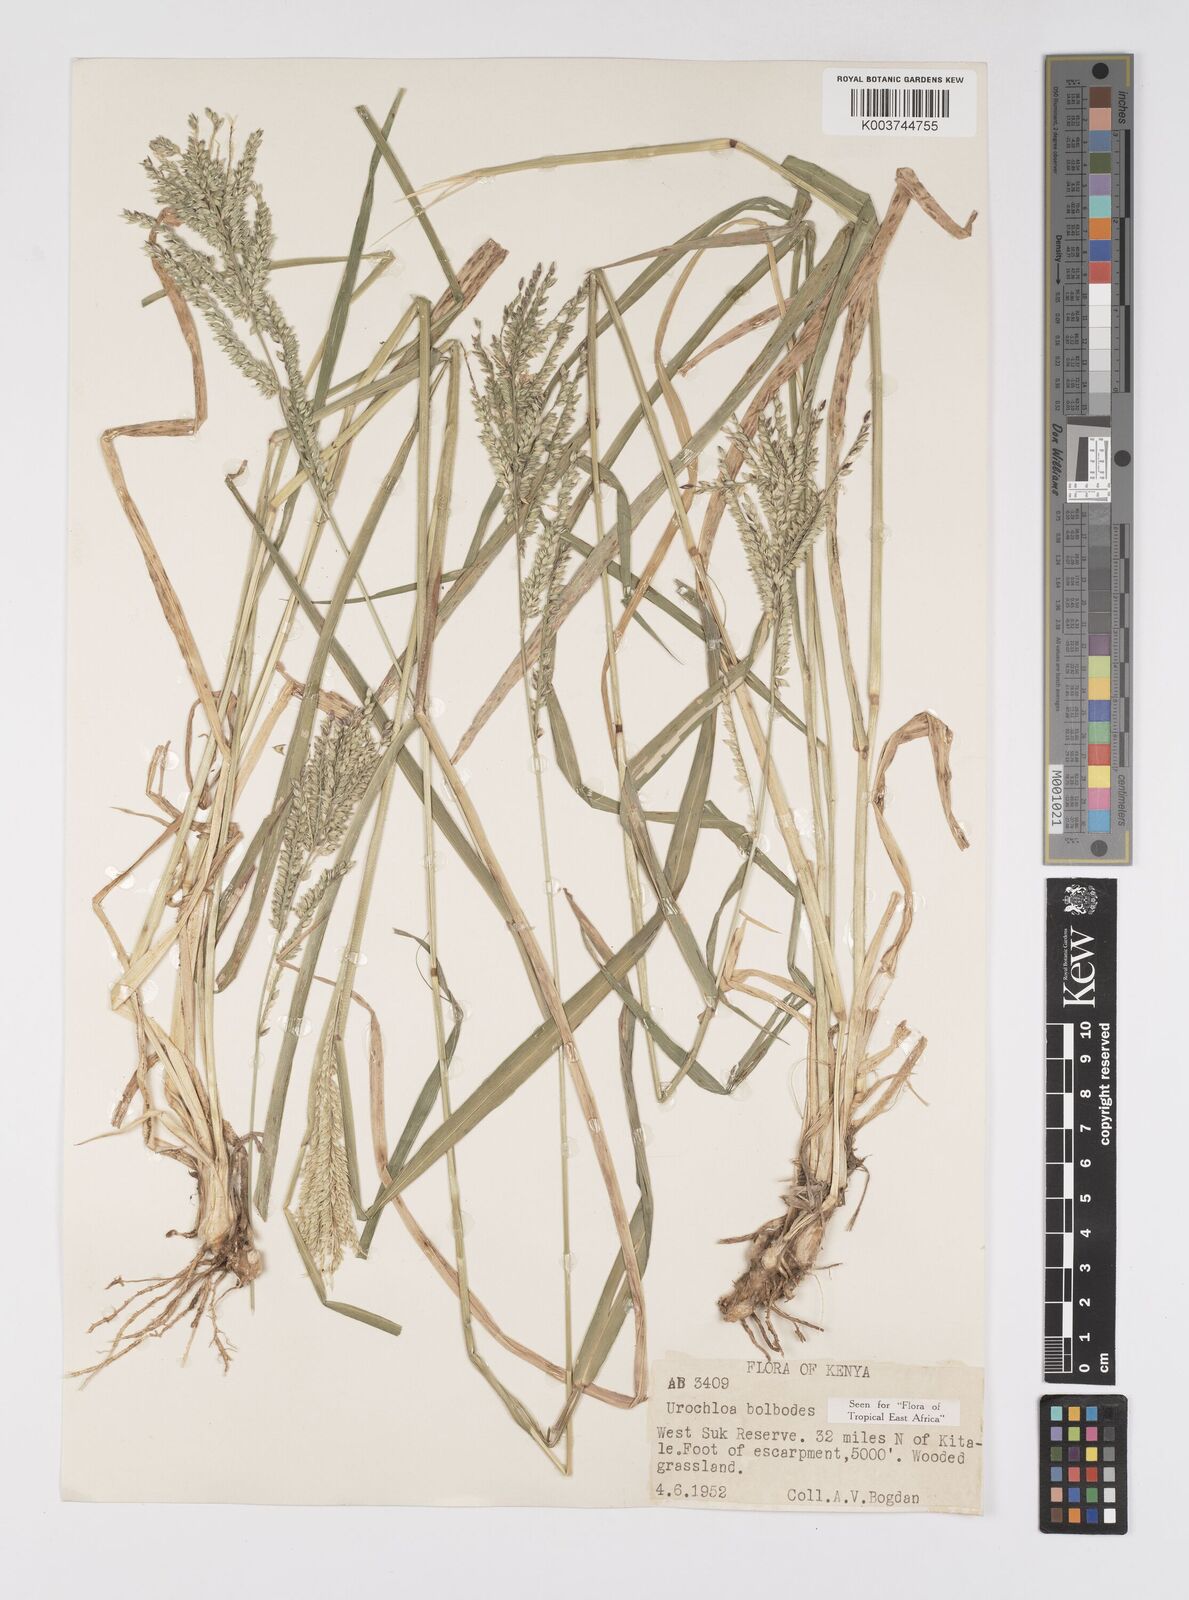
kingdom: Plantae
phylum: Tracheophyta
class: Liliopsida
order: Poales
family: Poaceae
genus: Urochloa
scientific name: Urochloa oligotricha
